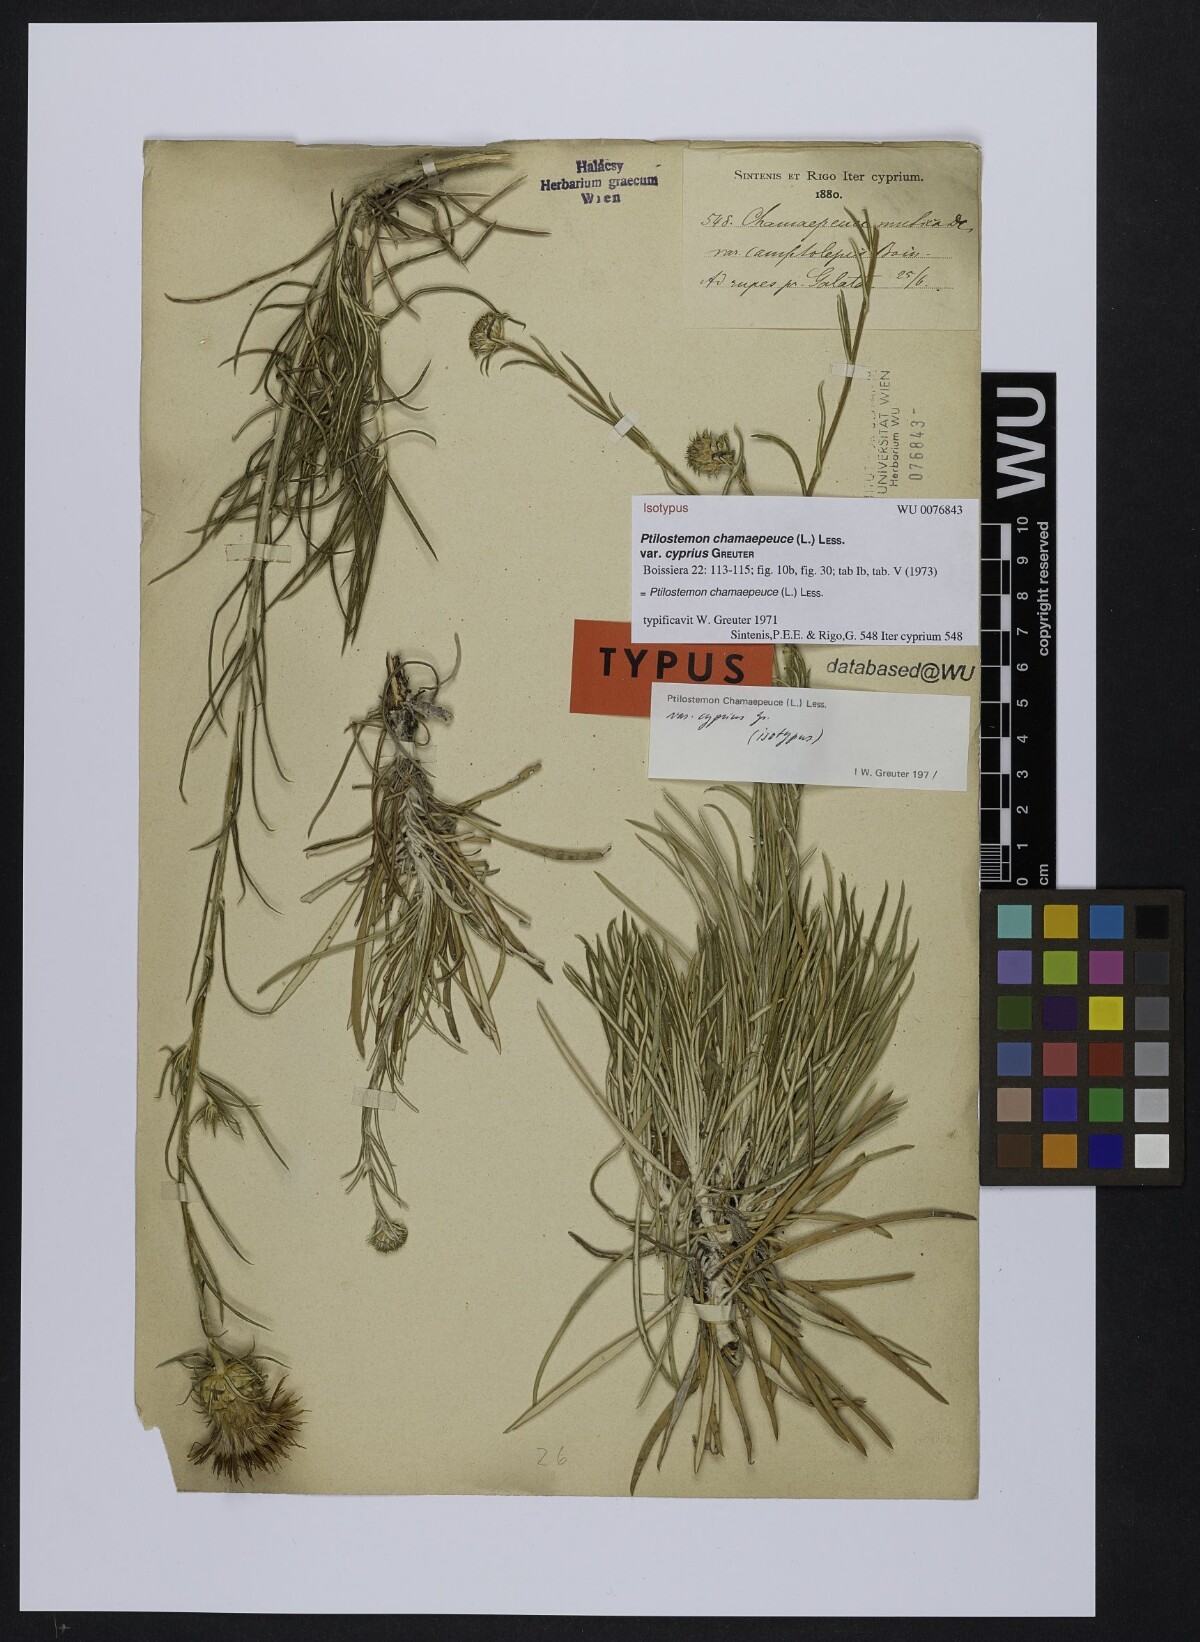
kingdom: Plantae
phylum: Tracheophyta
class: Magnoliopsida
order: Asterales
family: Asteraceae
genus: Ptilostemon
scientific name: Ptilostemon chamaepeuce
